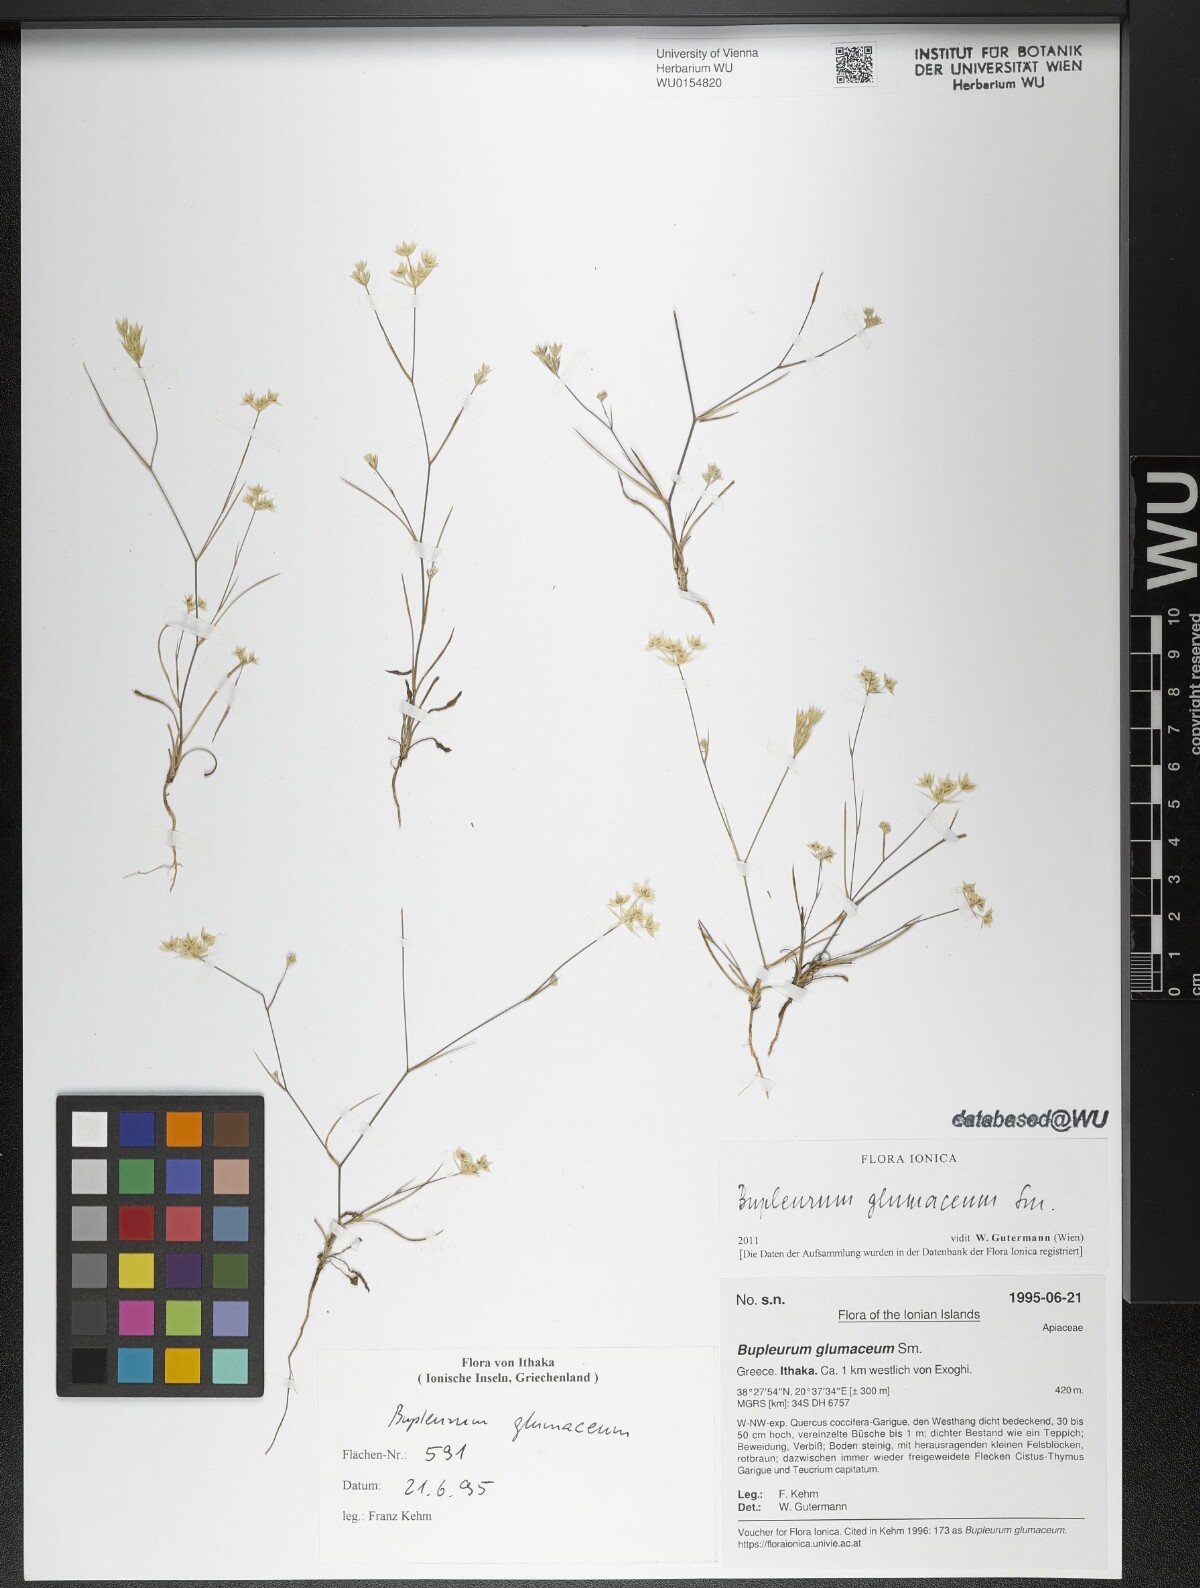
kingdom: Plantae
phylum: Tracheophyta
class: Magnoliopsida
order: Apiales
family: Apiaceae
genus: Bupleurum
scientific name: Bupleurum glumaceum
